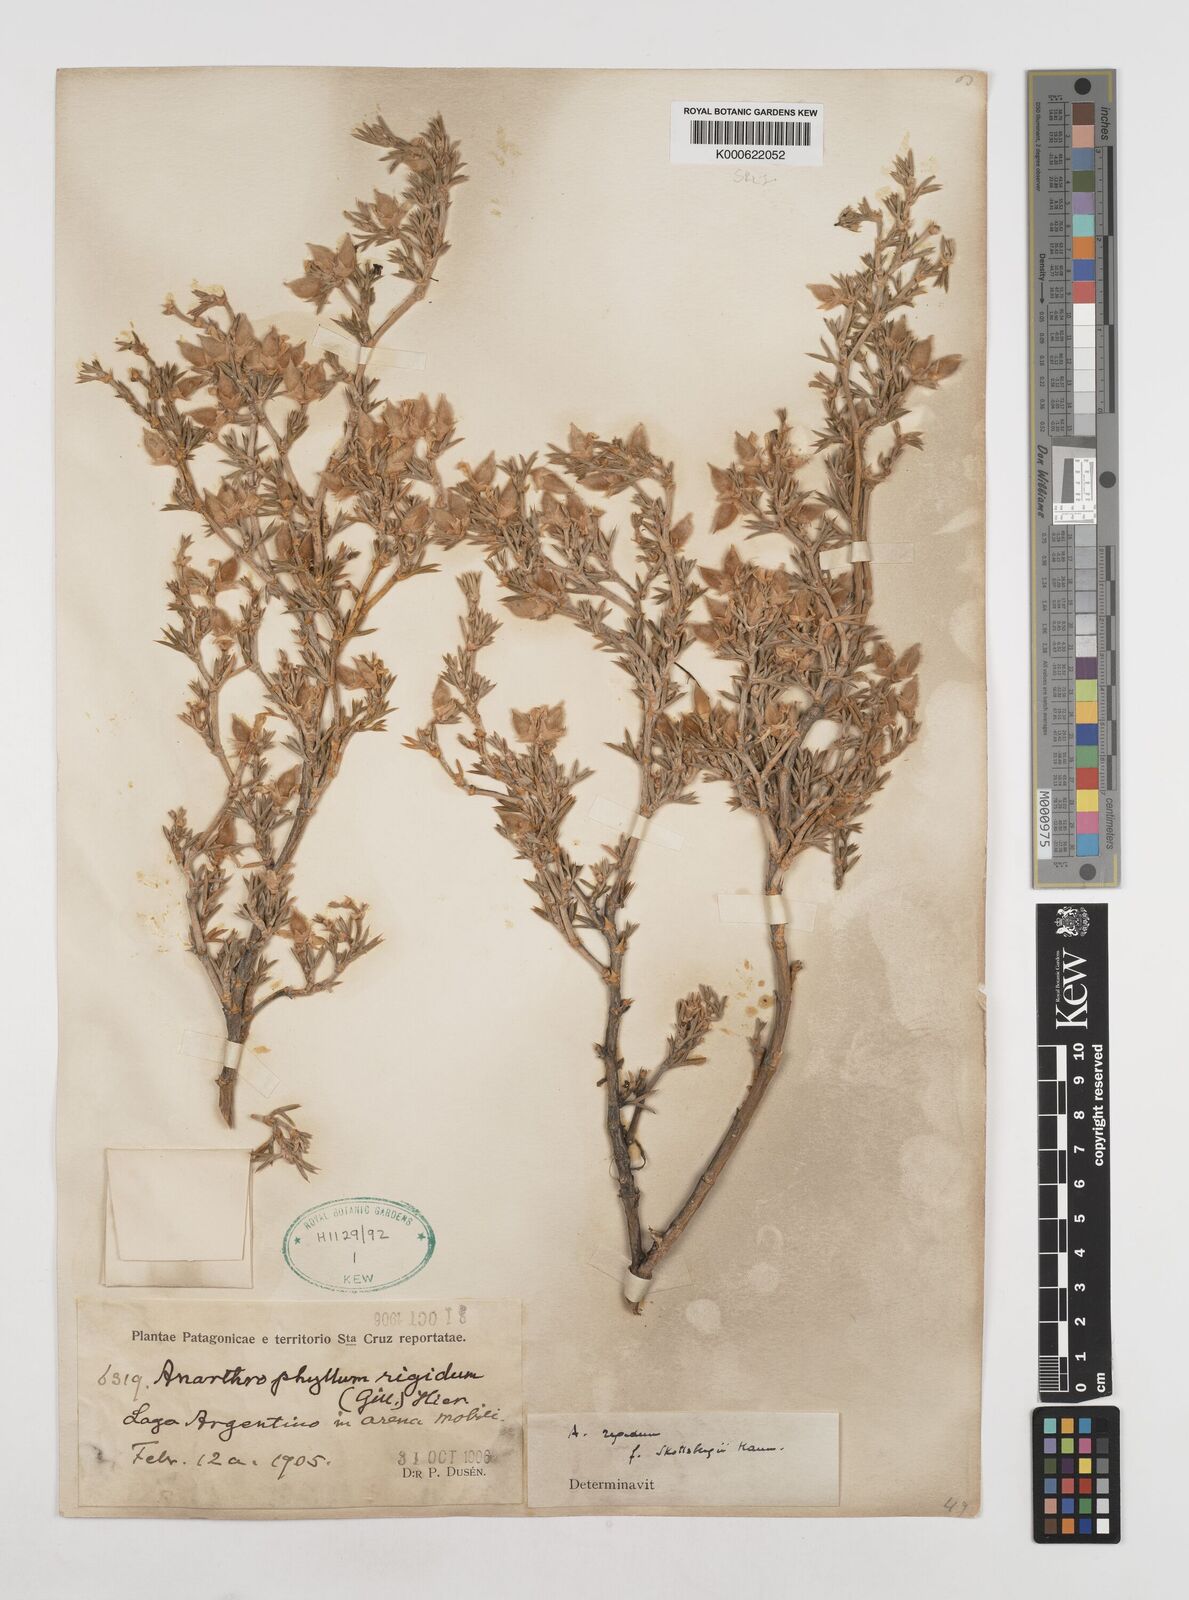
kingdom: Plantae
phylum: Tracheophyta
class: Magnoliopsida
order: Fabales
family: Fabaceae
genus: Anarthrophyllum
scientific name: Anarthrophyllum rigidum
